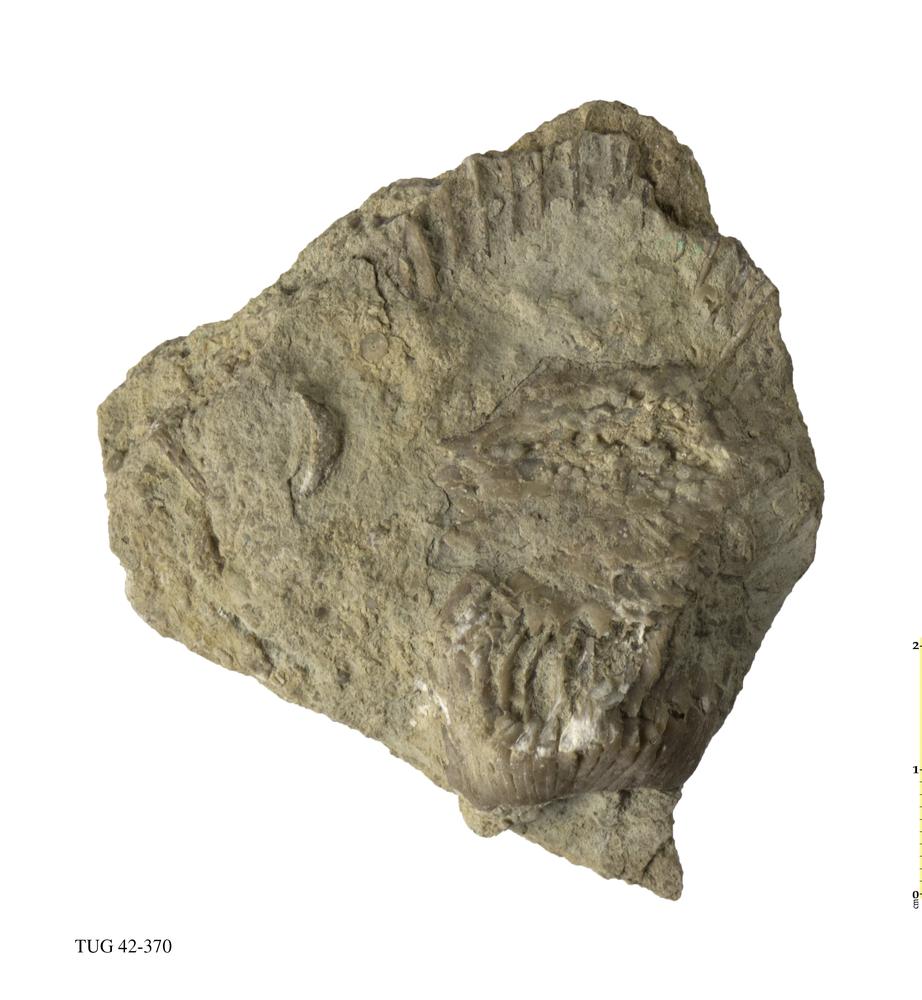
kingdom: Animalia
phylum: Mollusca
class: Cephalopoda
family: Phragmoceratidae
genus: Phragmoceras
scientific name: Phragmoceras
